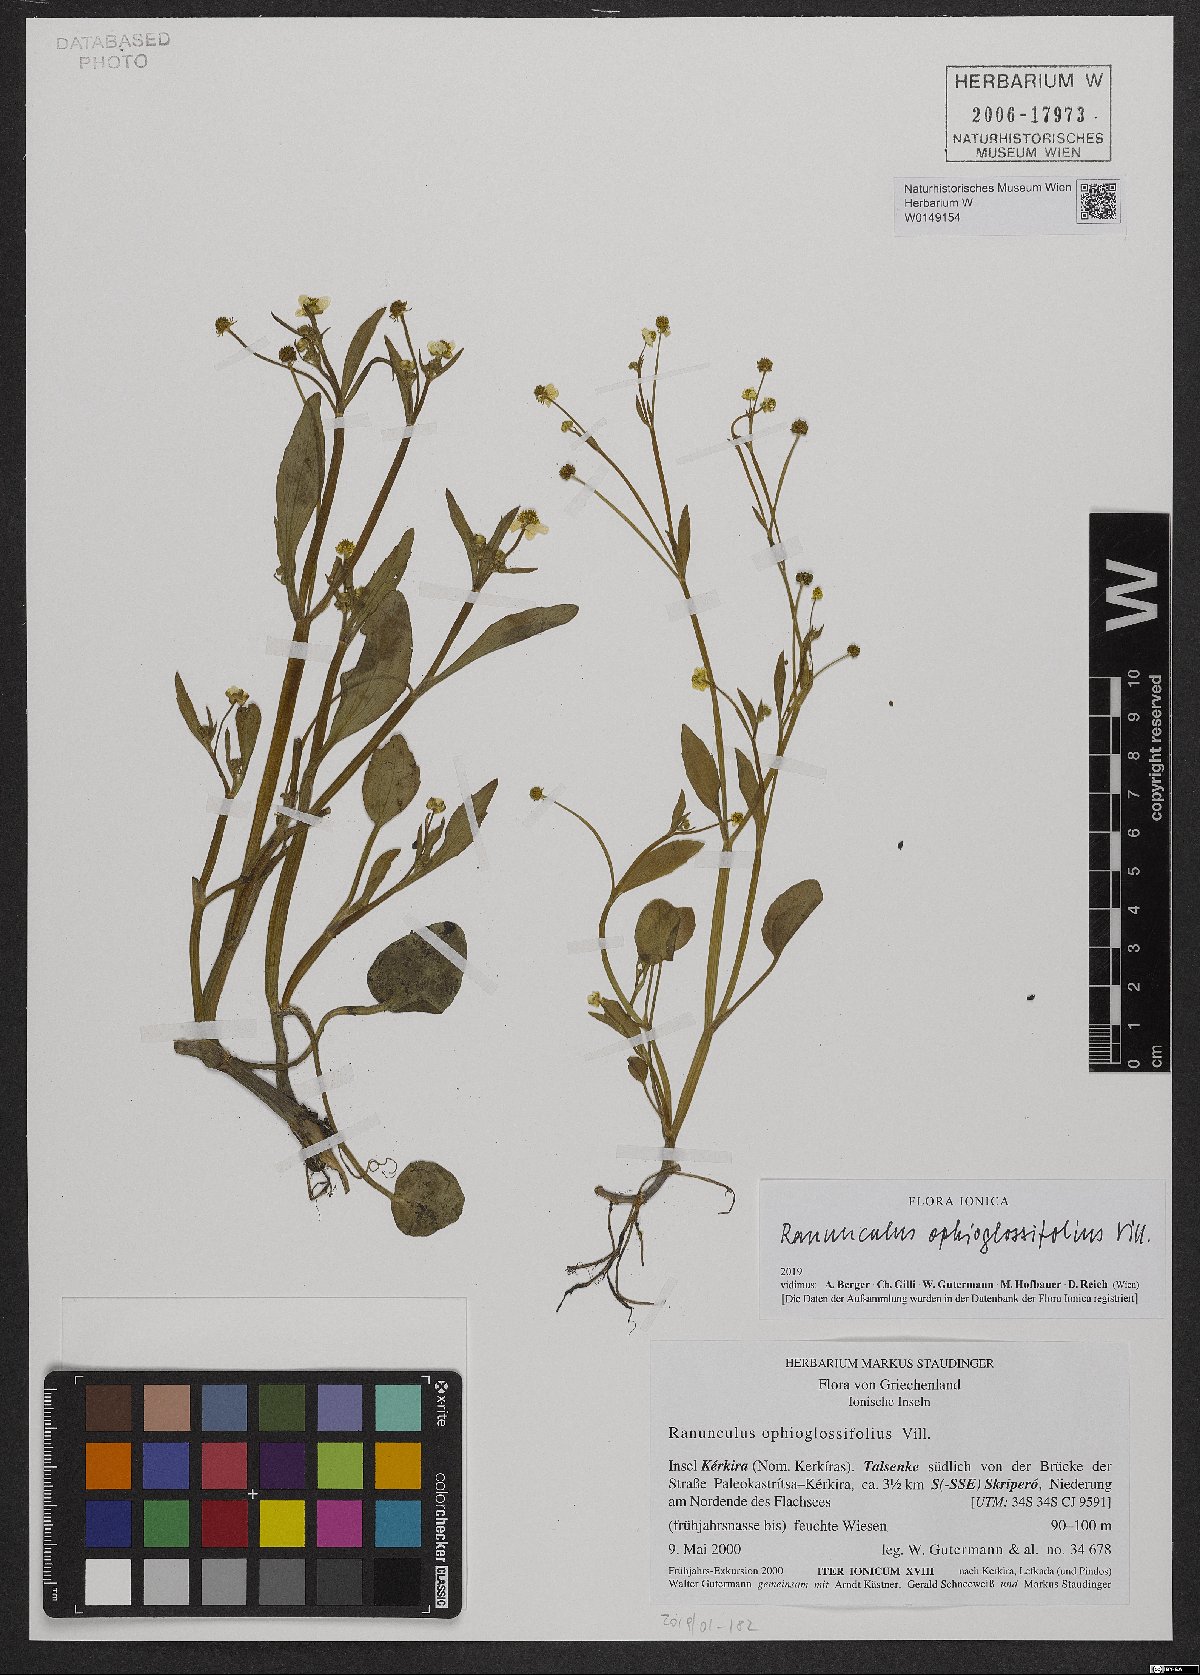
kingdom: Plantae
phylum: Tracheophyta
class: Magnoliopsida
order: Ranunculales
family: Ranunculaceae
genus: Ranunculus
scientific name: Ranunculus ophioglossifolius
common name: Adder's-tongue spearwort
